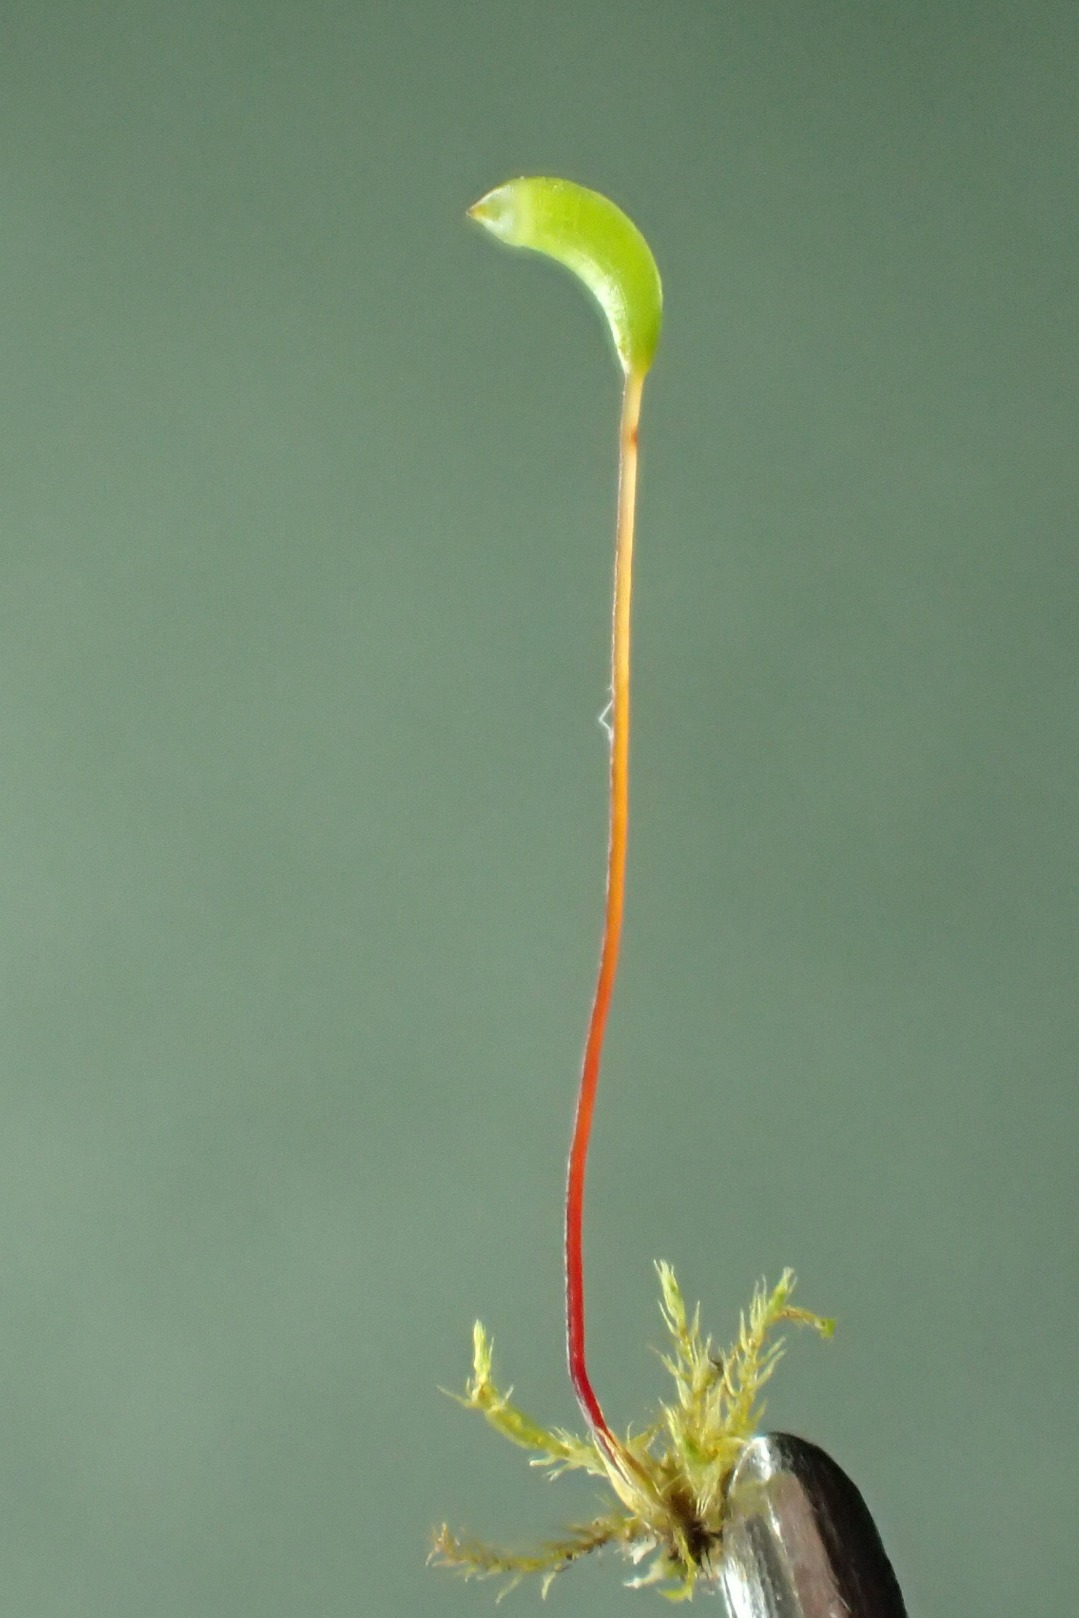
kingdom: Plantae
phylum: Bryophyta
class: Bryopsida
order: Hypnales
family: Amblystegiaceae
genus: Amblystegium
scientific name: Amblystegium serpens
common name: Almindelig krybmos
